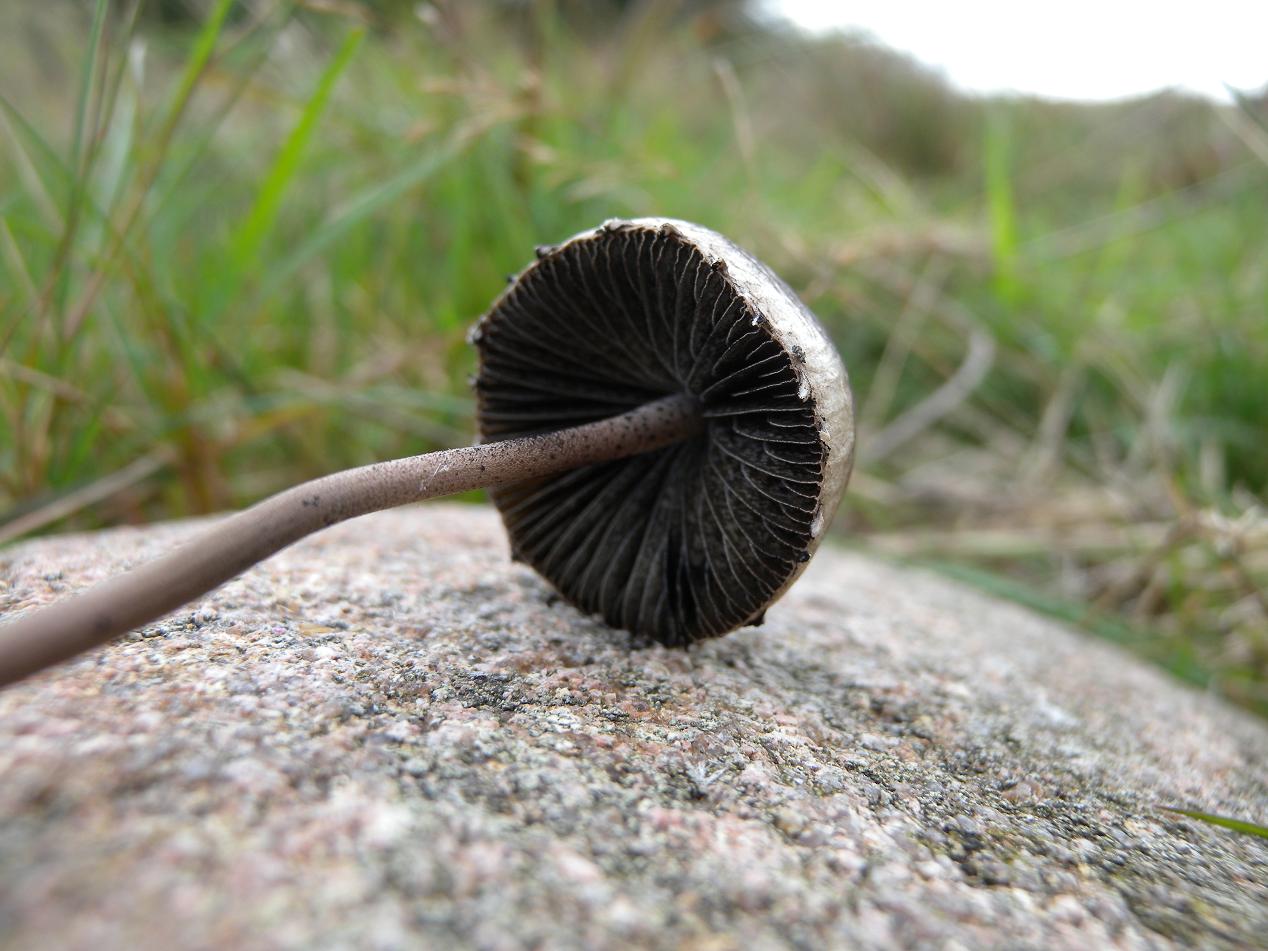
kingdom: Fungi
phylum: Basidiomycota
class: Agaricomycetes
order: Agaricales
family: Bolbitiaceae
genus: Panaeolus
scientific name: Panaeolus papilionaceus
